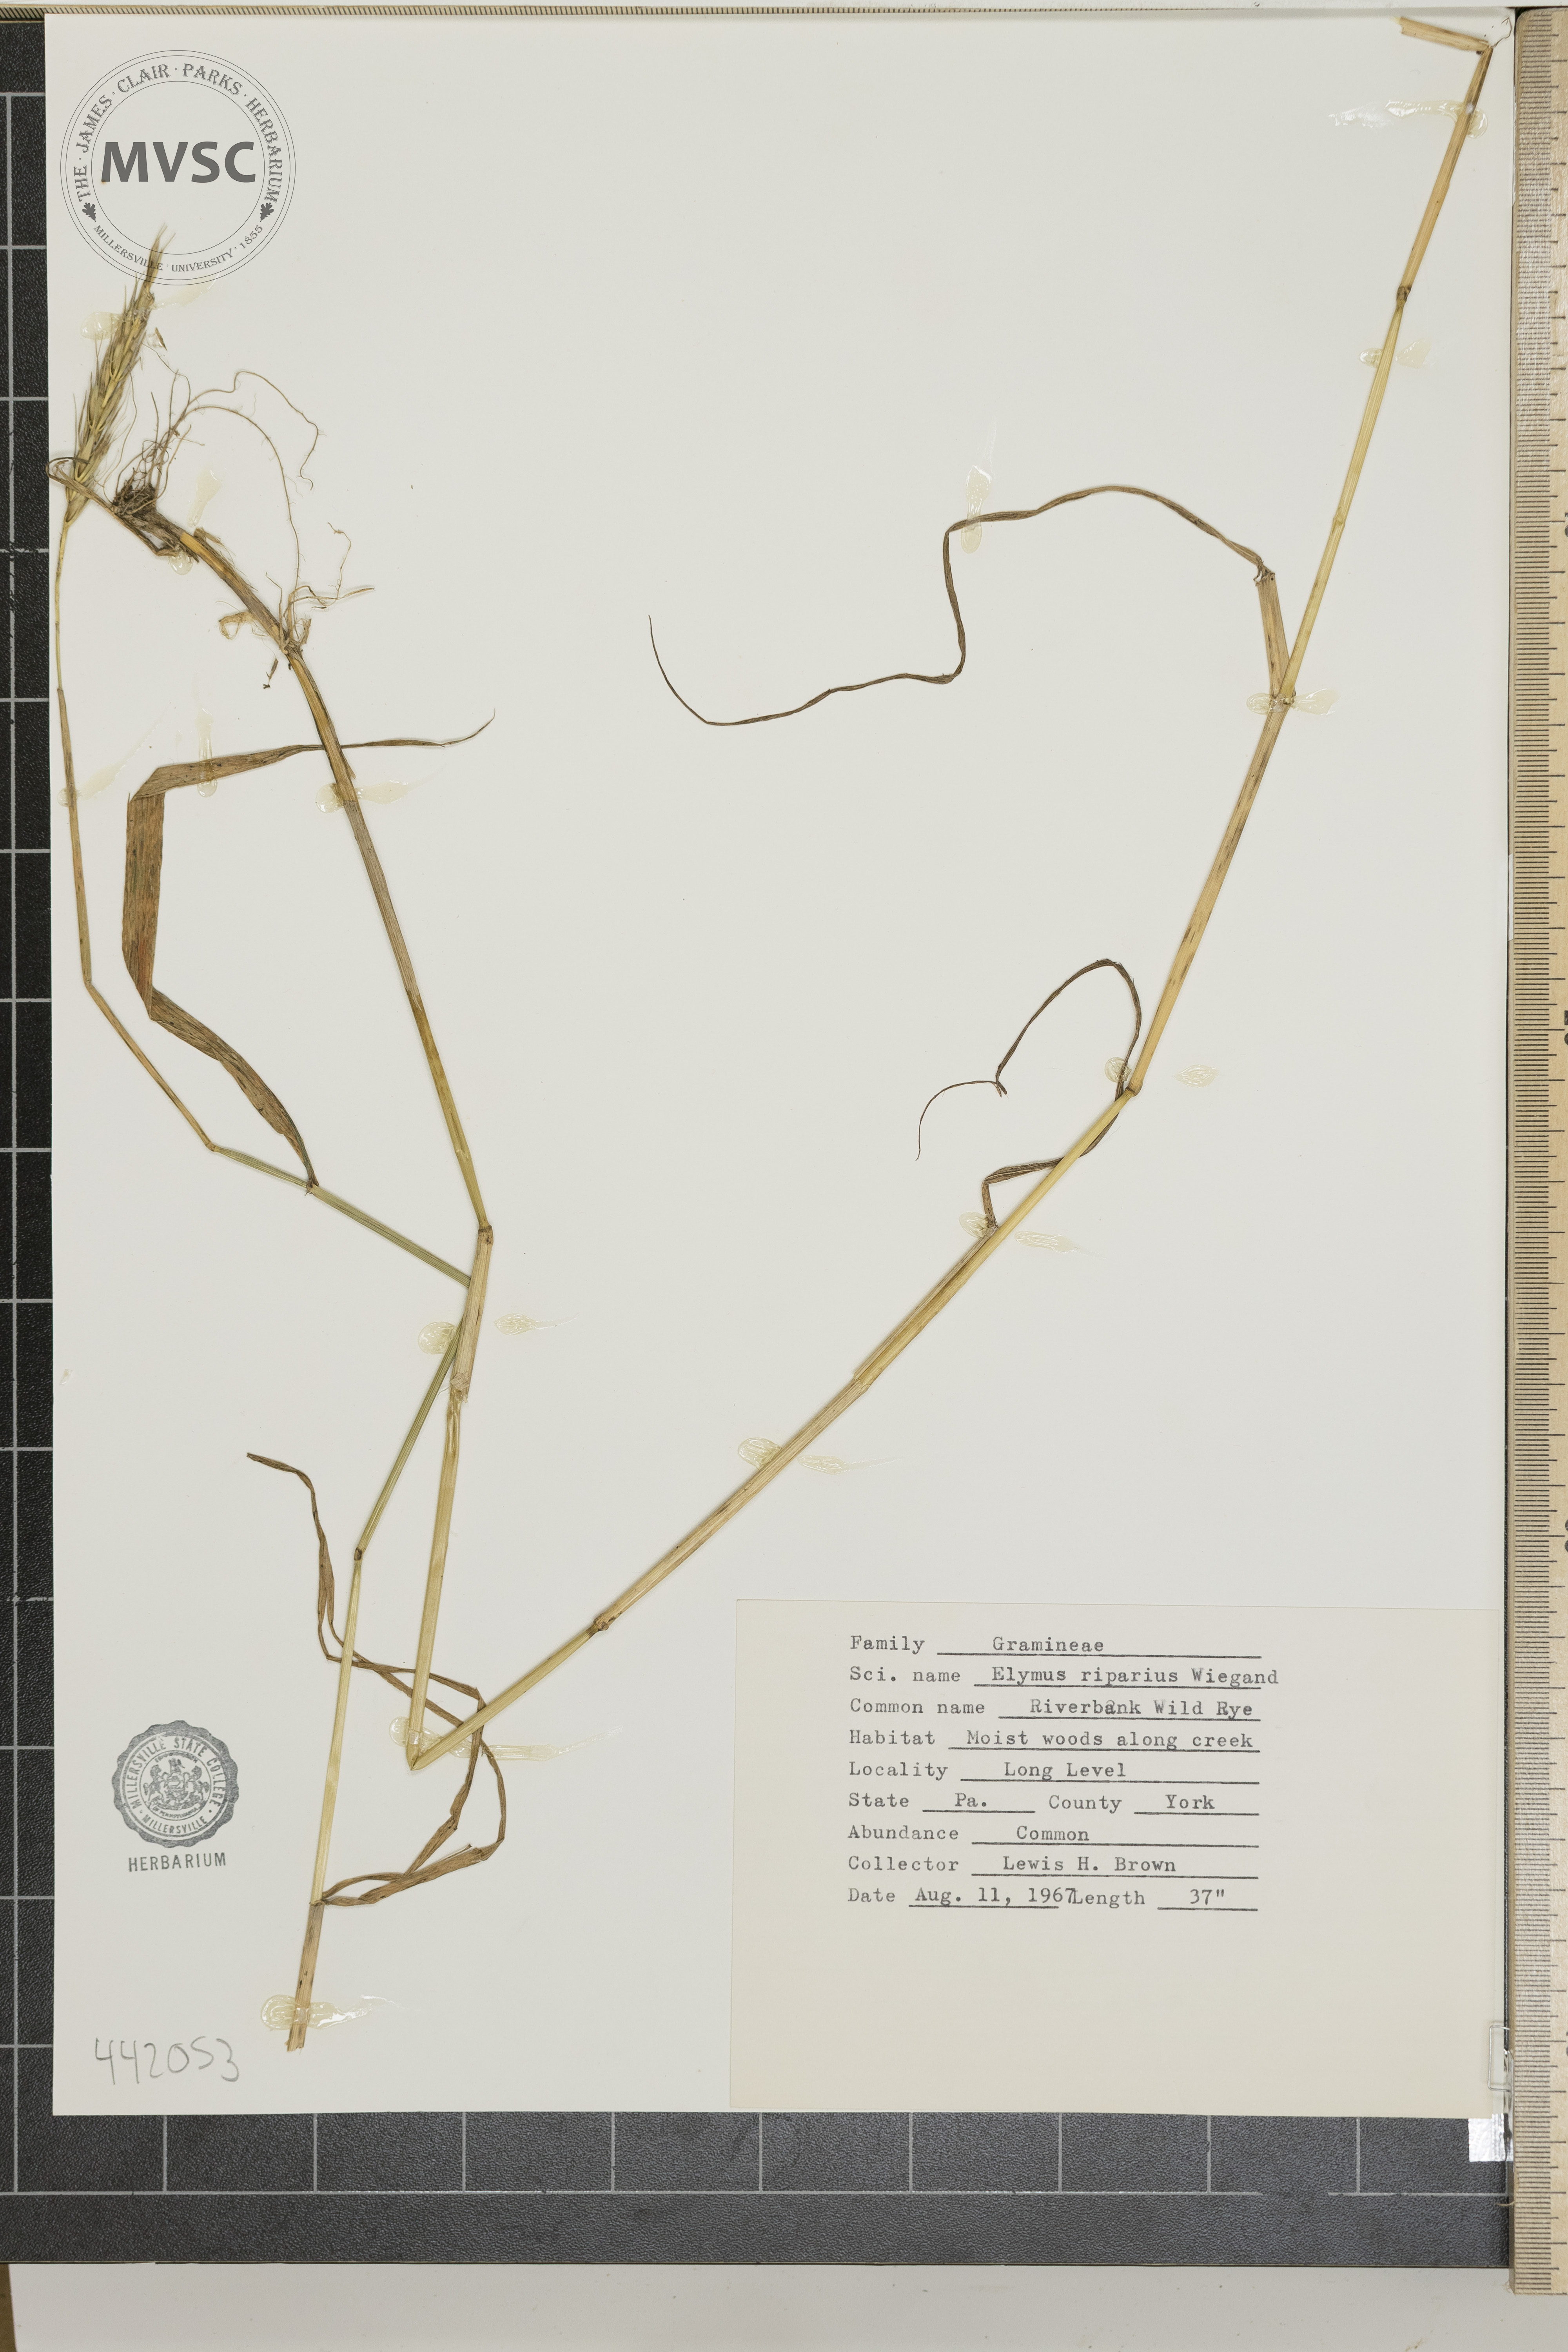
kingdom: Plantae
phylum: Tracheophyta
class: Liliopsida
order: Poales
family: Poaceae
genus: Elymus
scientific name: Elymus riparius
